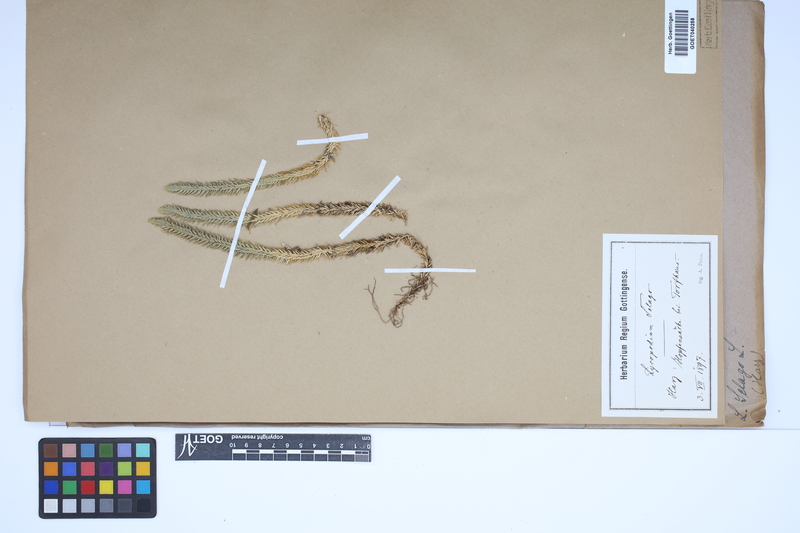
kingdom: Plantae
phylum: Tracheophyta
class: Lycopodiopsida
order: Lycopodiales
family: Lycopodiaceae
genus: Huperzia
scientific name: Huperzia selago
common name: Northern firmoss
